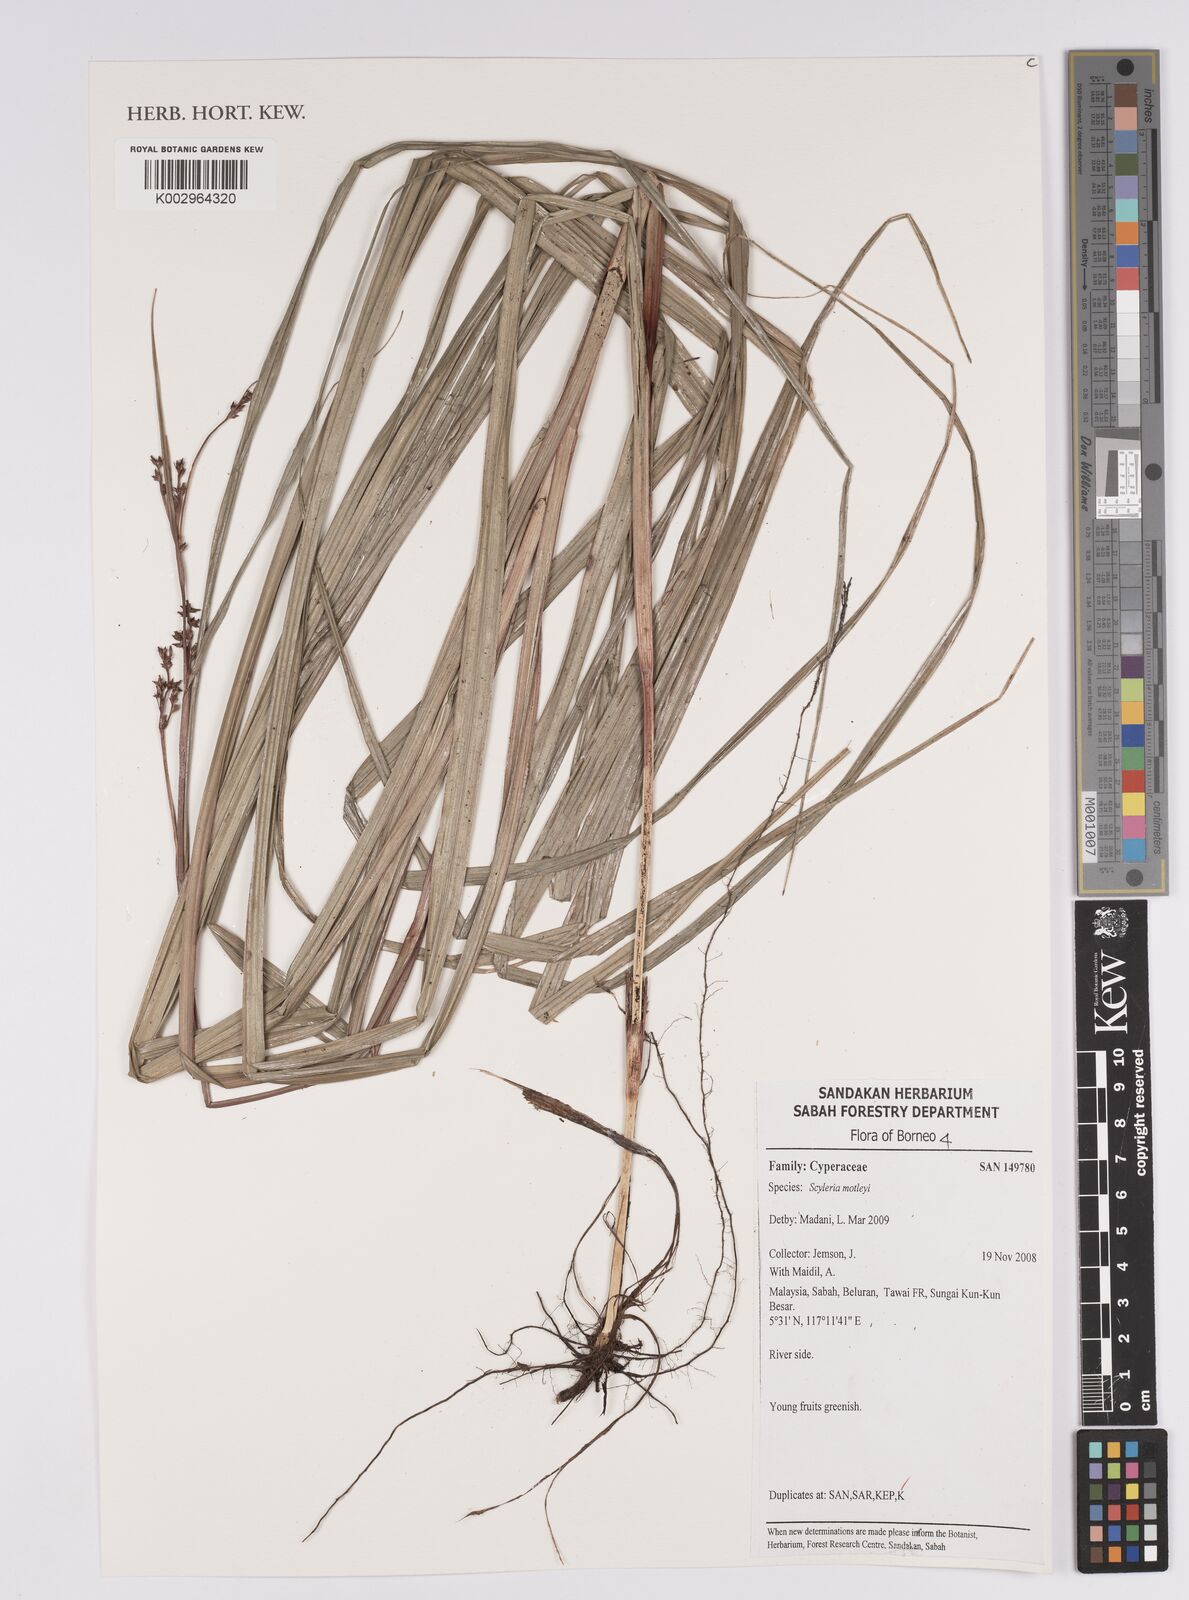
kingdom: Plantae
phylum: Tracheophyta
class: Liliopsida
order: Poales
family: Cyperaceae
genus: Scleria
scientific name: Scleria motleyi
